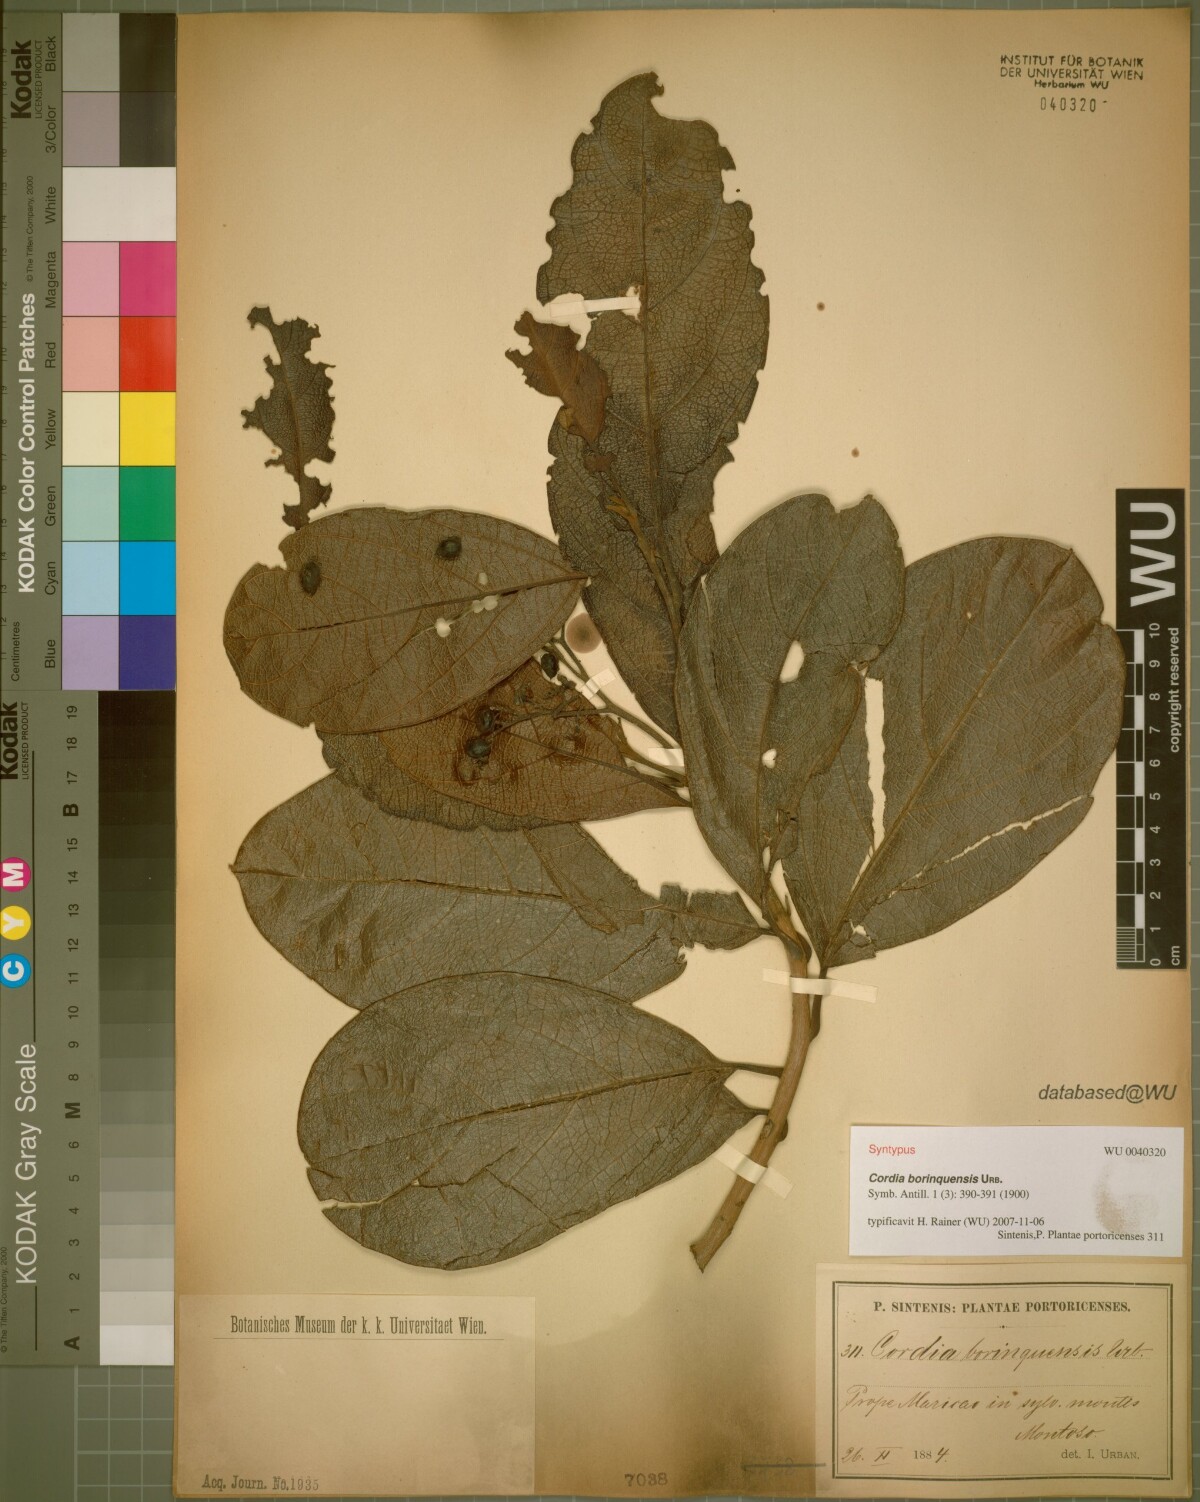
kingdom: Plantae
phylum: Tracheophyta
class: Magnoliopsida
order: Boraginales
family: Cordiaceae
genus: Cordia
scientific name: Cordia borinquensis
